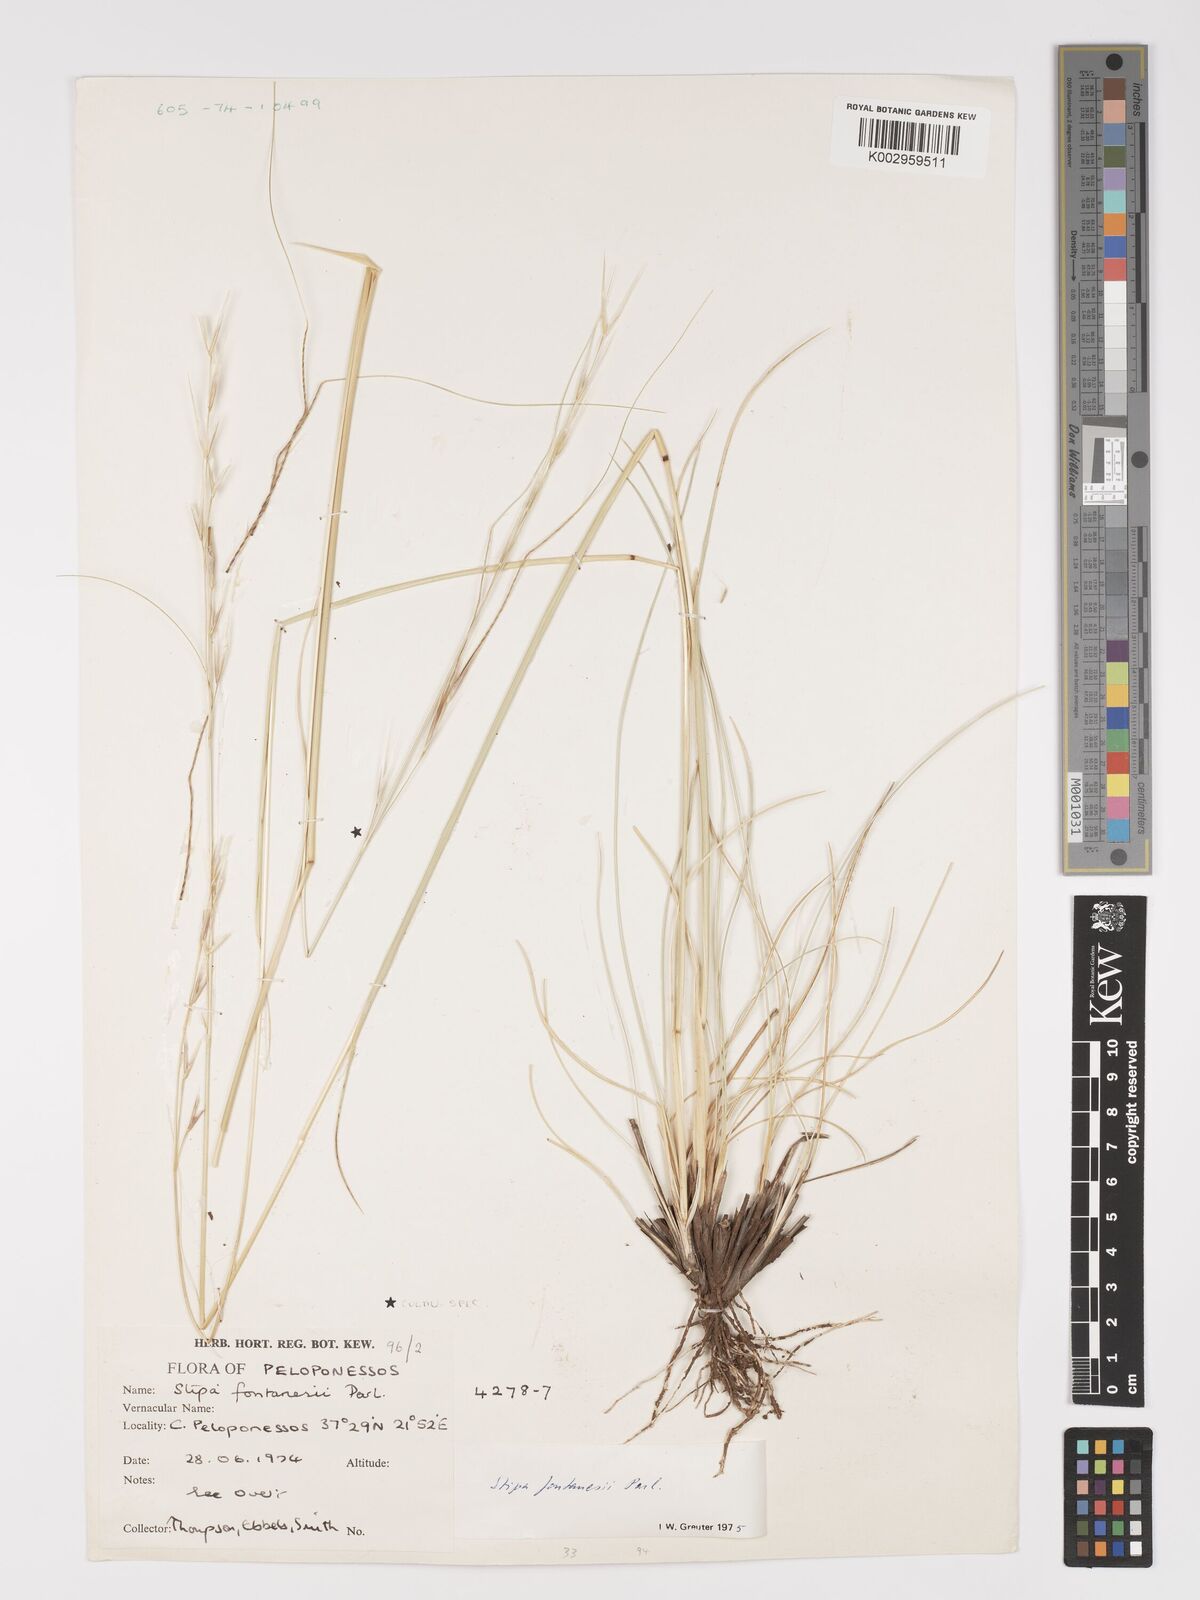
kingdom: Plantae
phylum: Tracheophyta
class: Liliopsida
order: Poales
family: Poaceae
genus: Stipa
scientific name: Stipa holosericea
